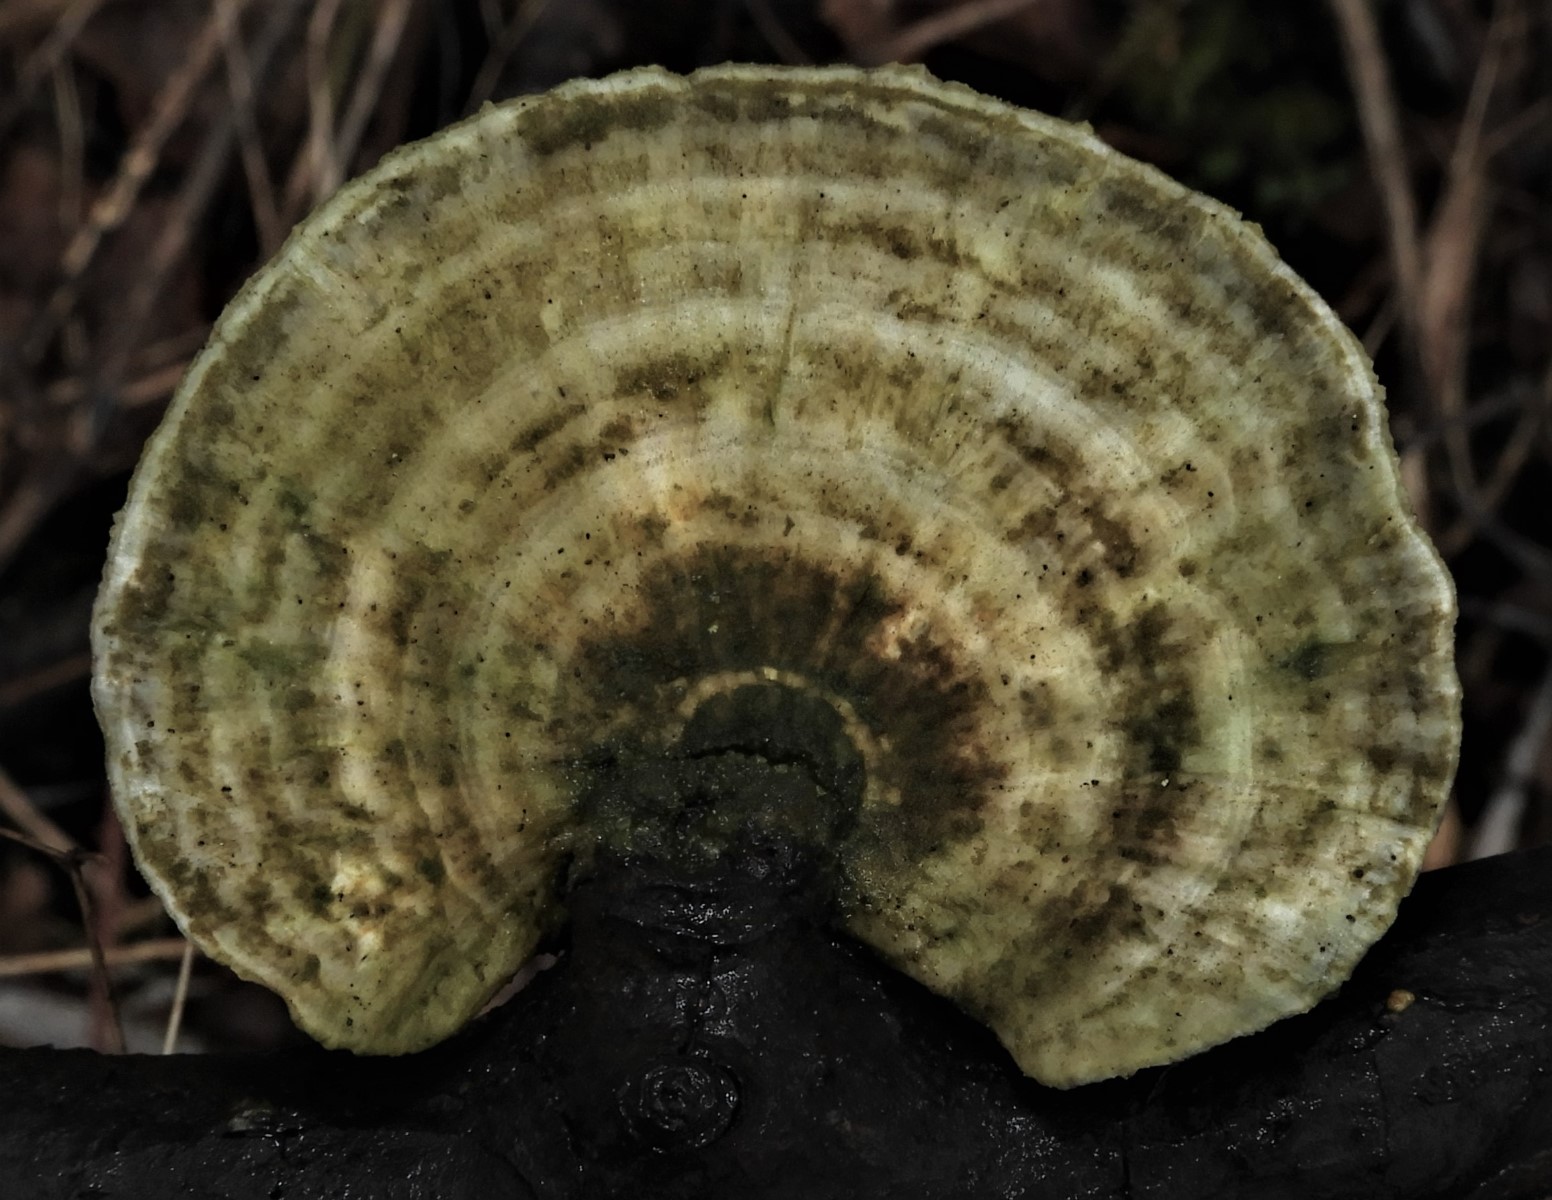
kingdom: Fungi
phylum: Basidiomycota
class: Agaricomycetes
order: Polyporales
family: Polyporaceae
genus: Trametes
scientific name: Trametes gibbosa
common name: puklet læderporesvamp
